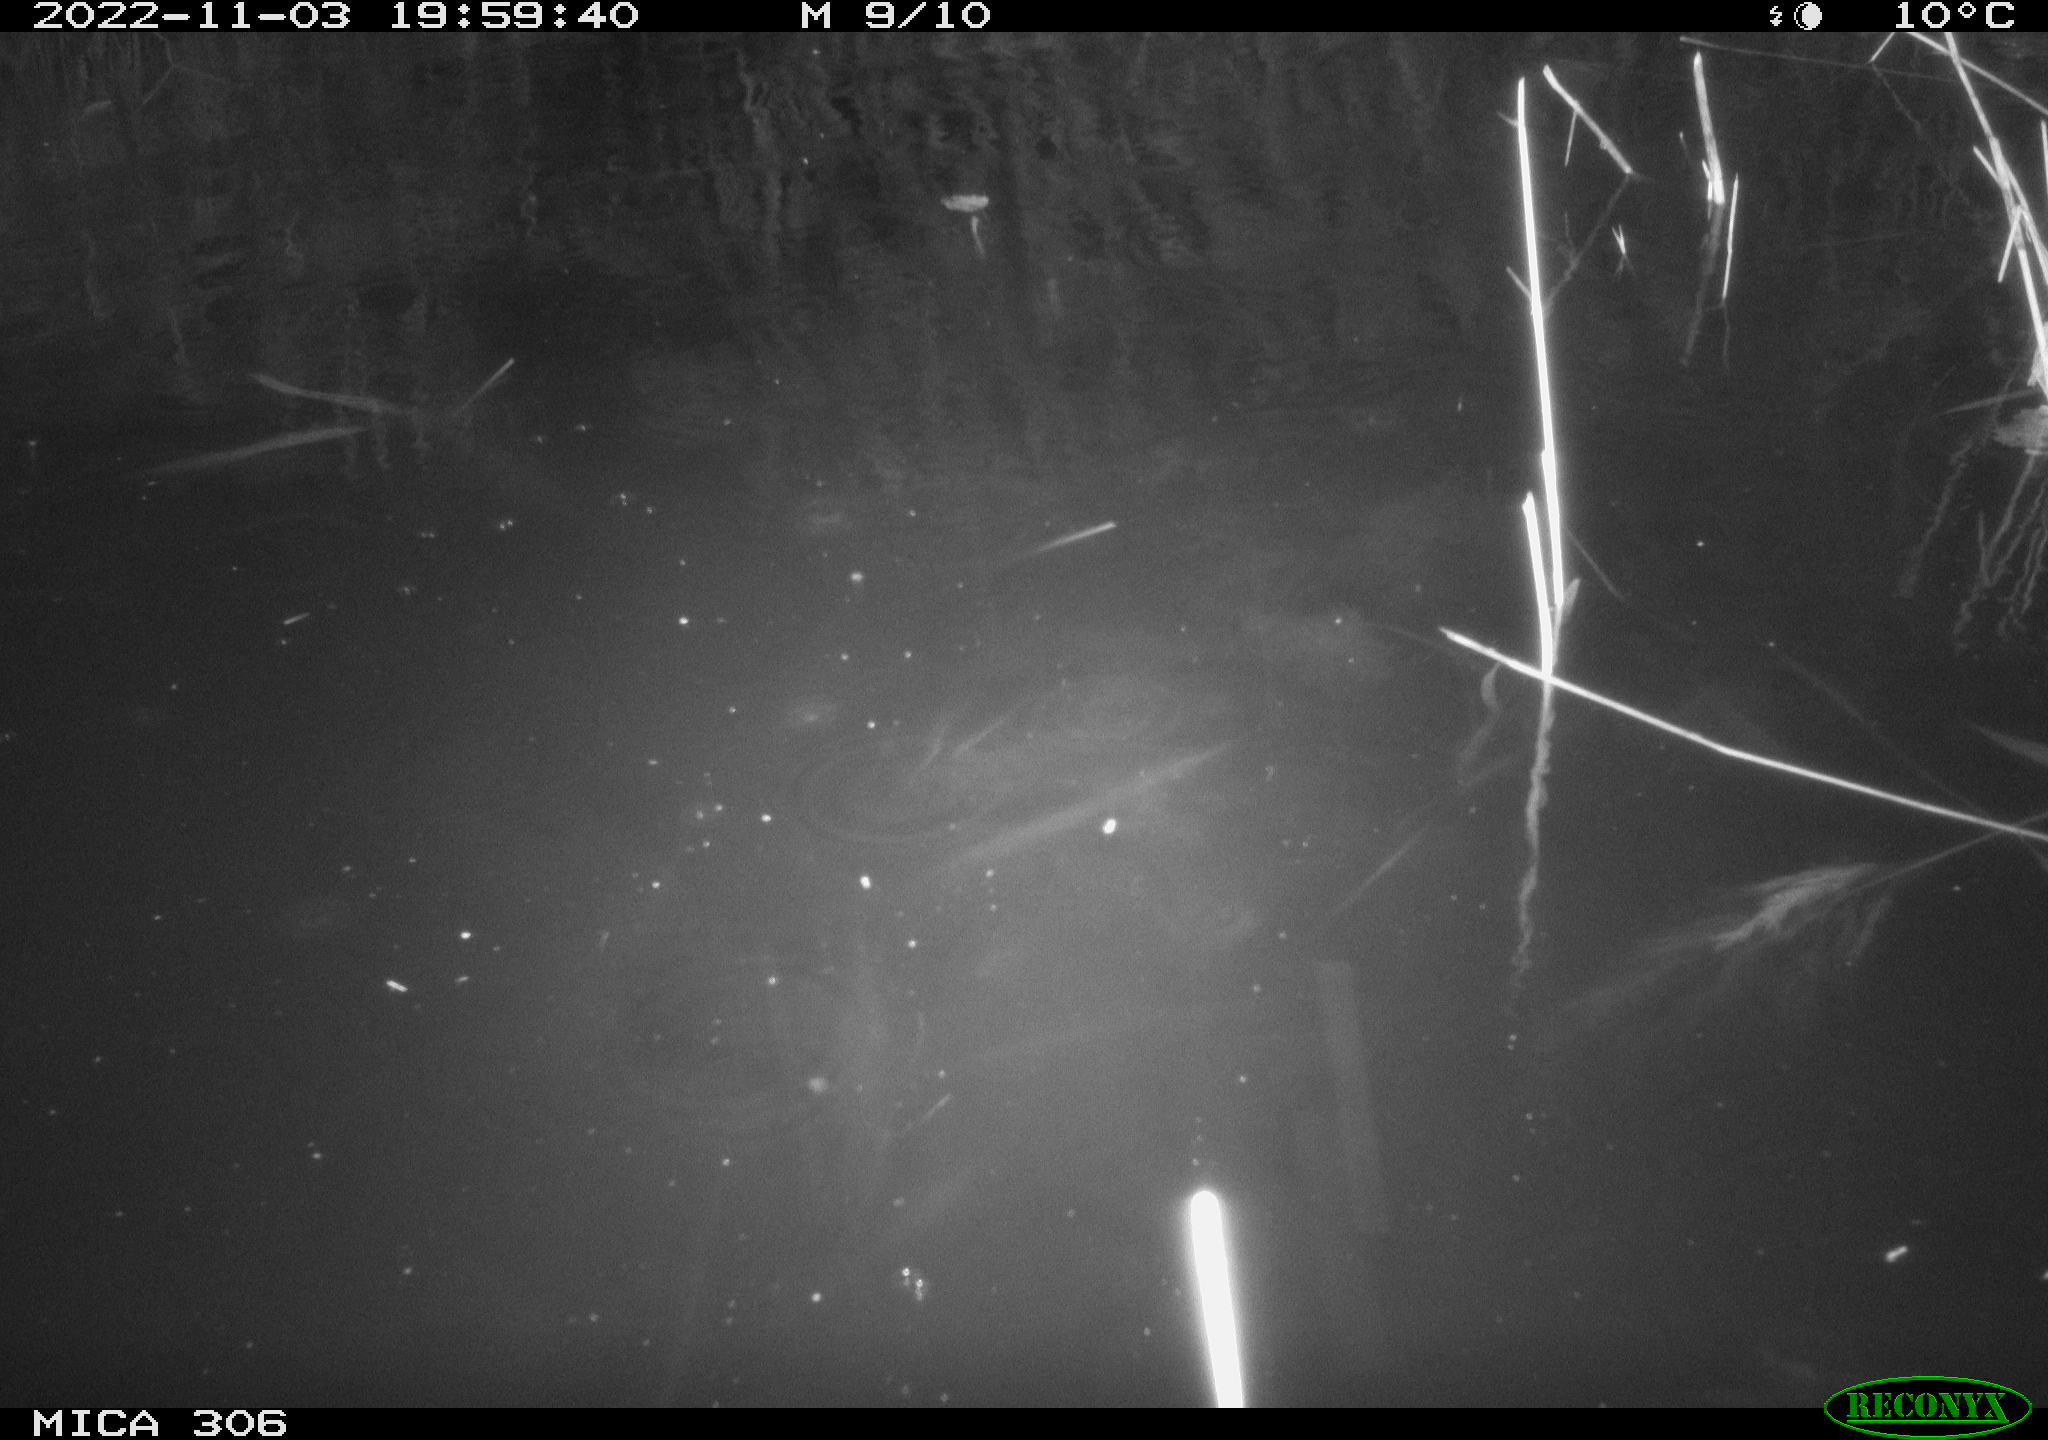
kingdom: Animalia
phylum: Chordata
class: Mammalia
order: Rodentia
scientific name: Rodentia
